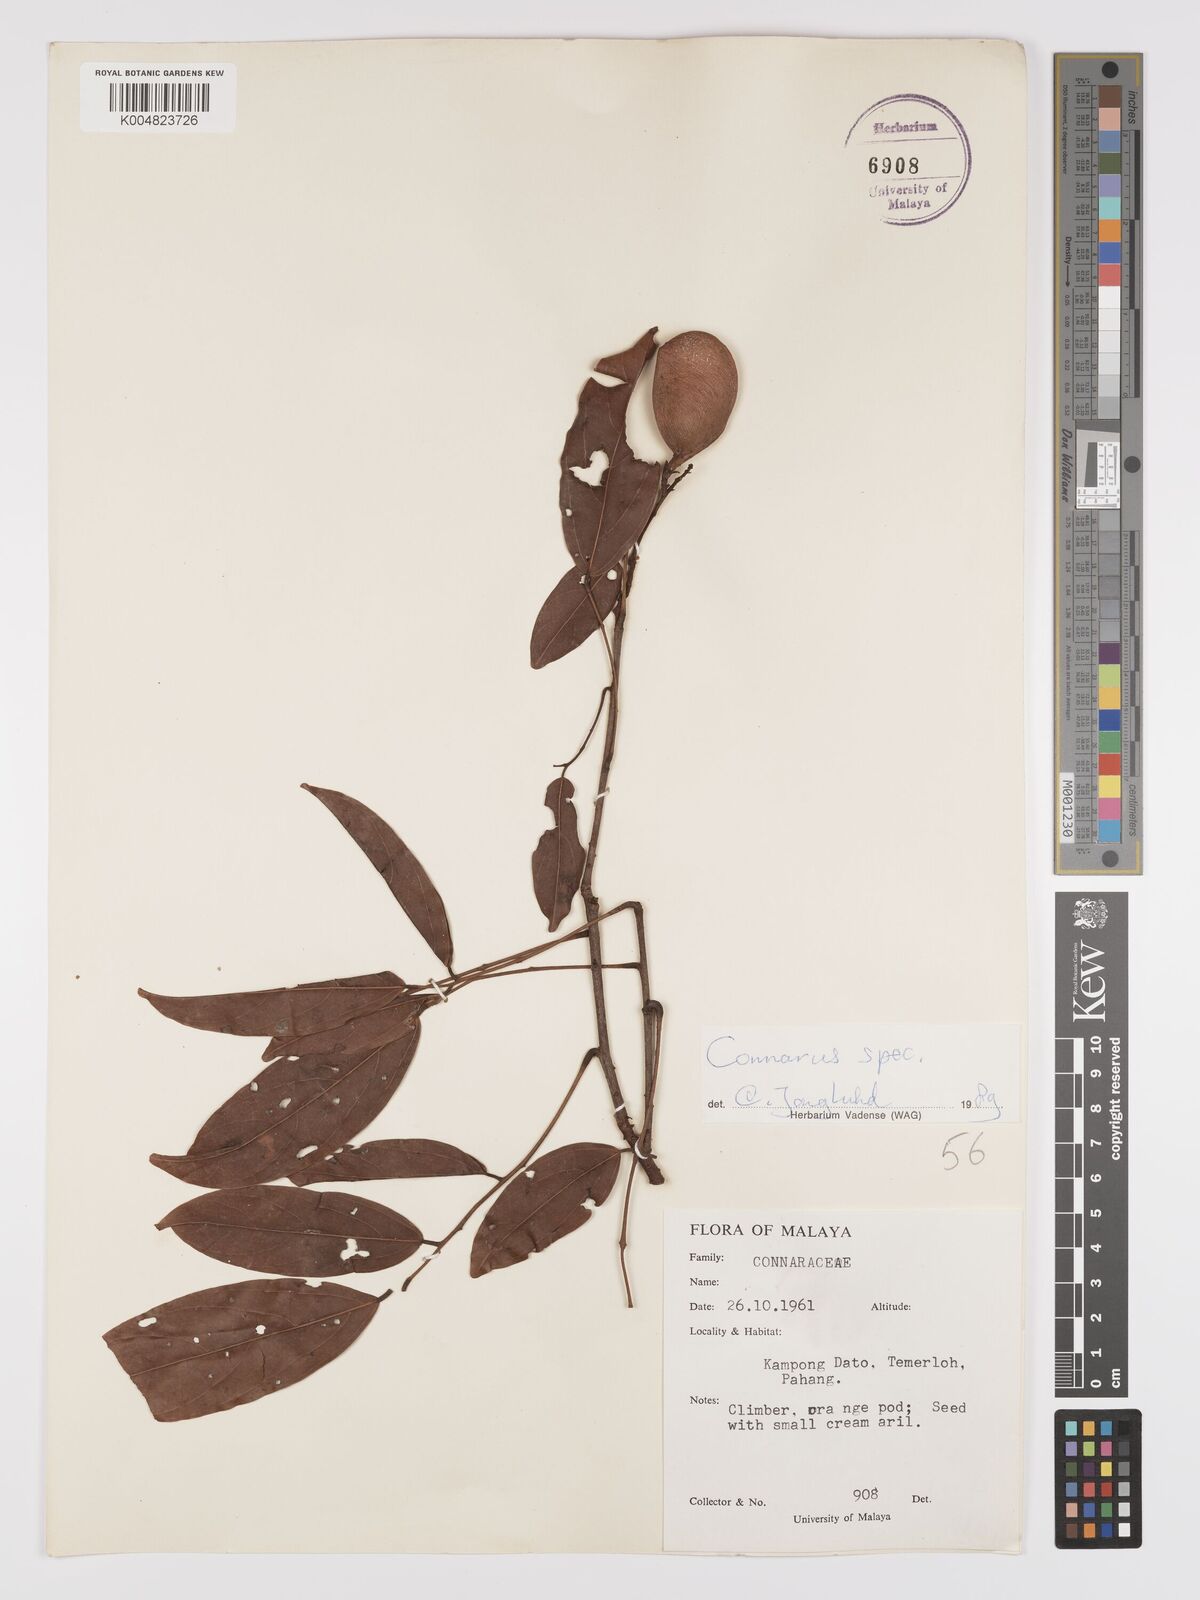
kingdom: Plantae
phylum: Tracheophyta
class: Magnoliopsida
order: Oxalidales
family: Connaraceae
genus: Connarus
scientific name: Connarus
